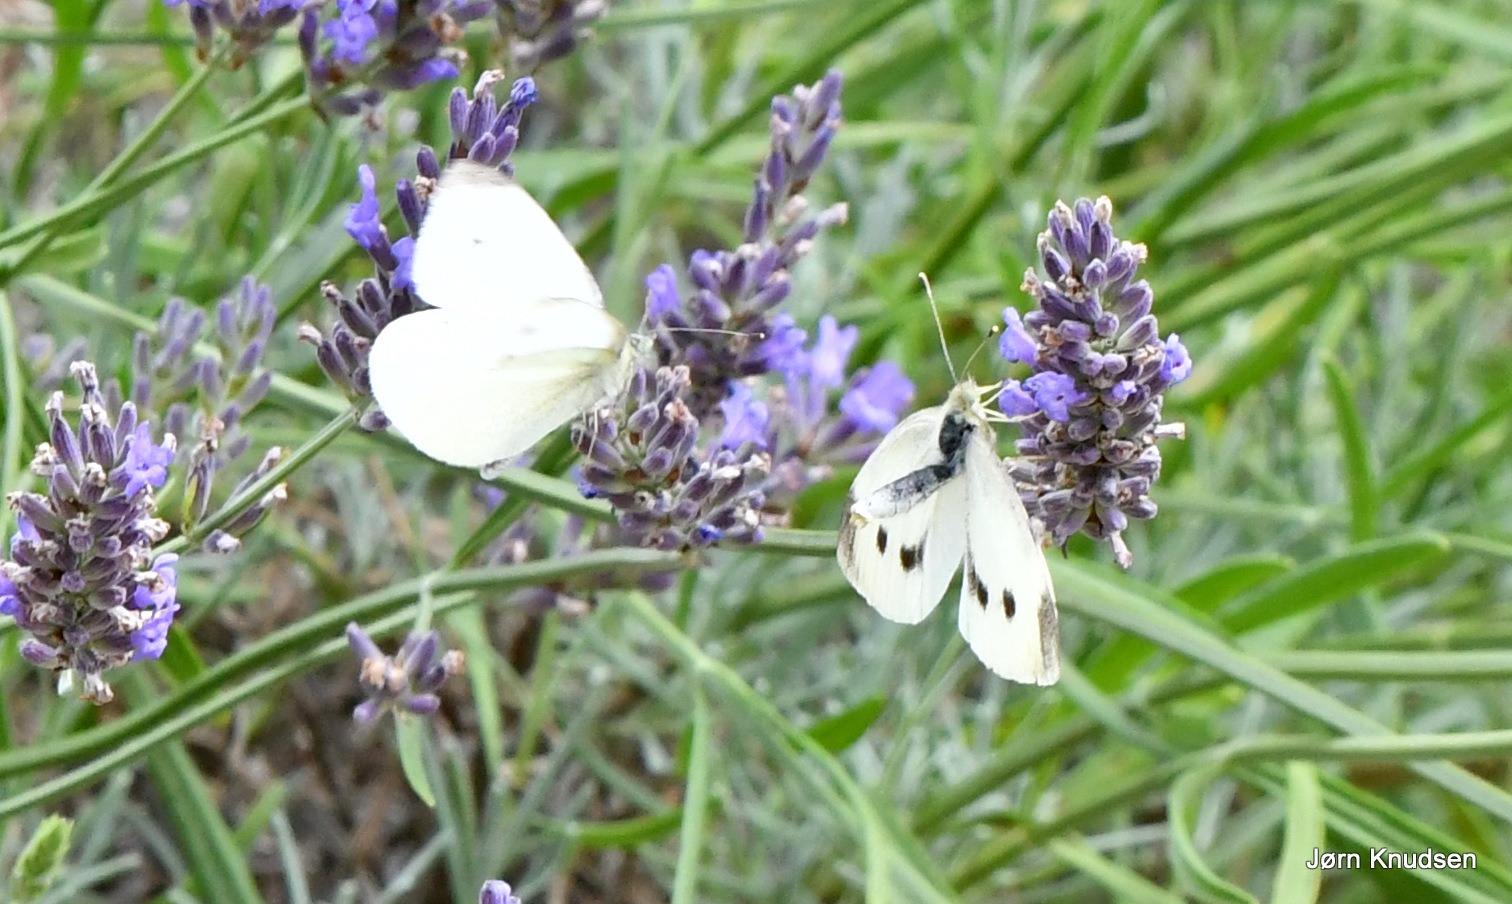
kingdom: Animalia
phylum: Arthropoda
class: Insecta
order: Lepidoptera
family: Pieridae
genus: Pieris
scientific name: Pieris rapae
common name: Lille kålsommerfugl
